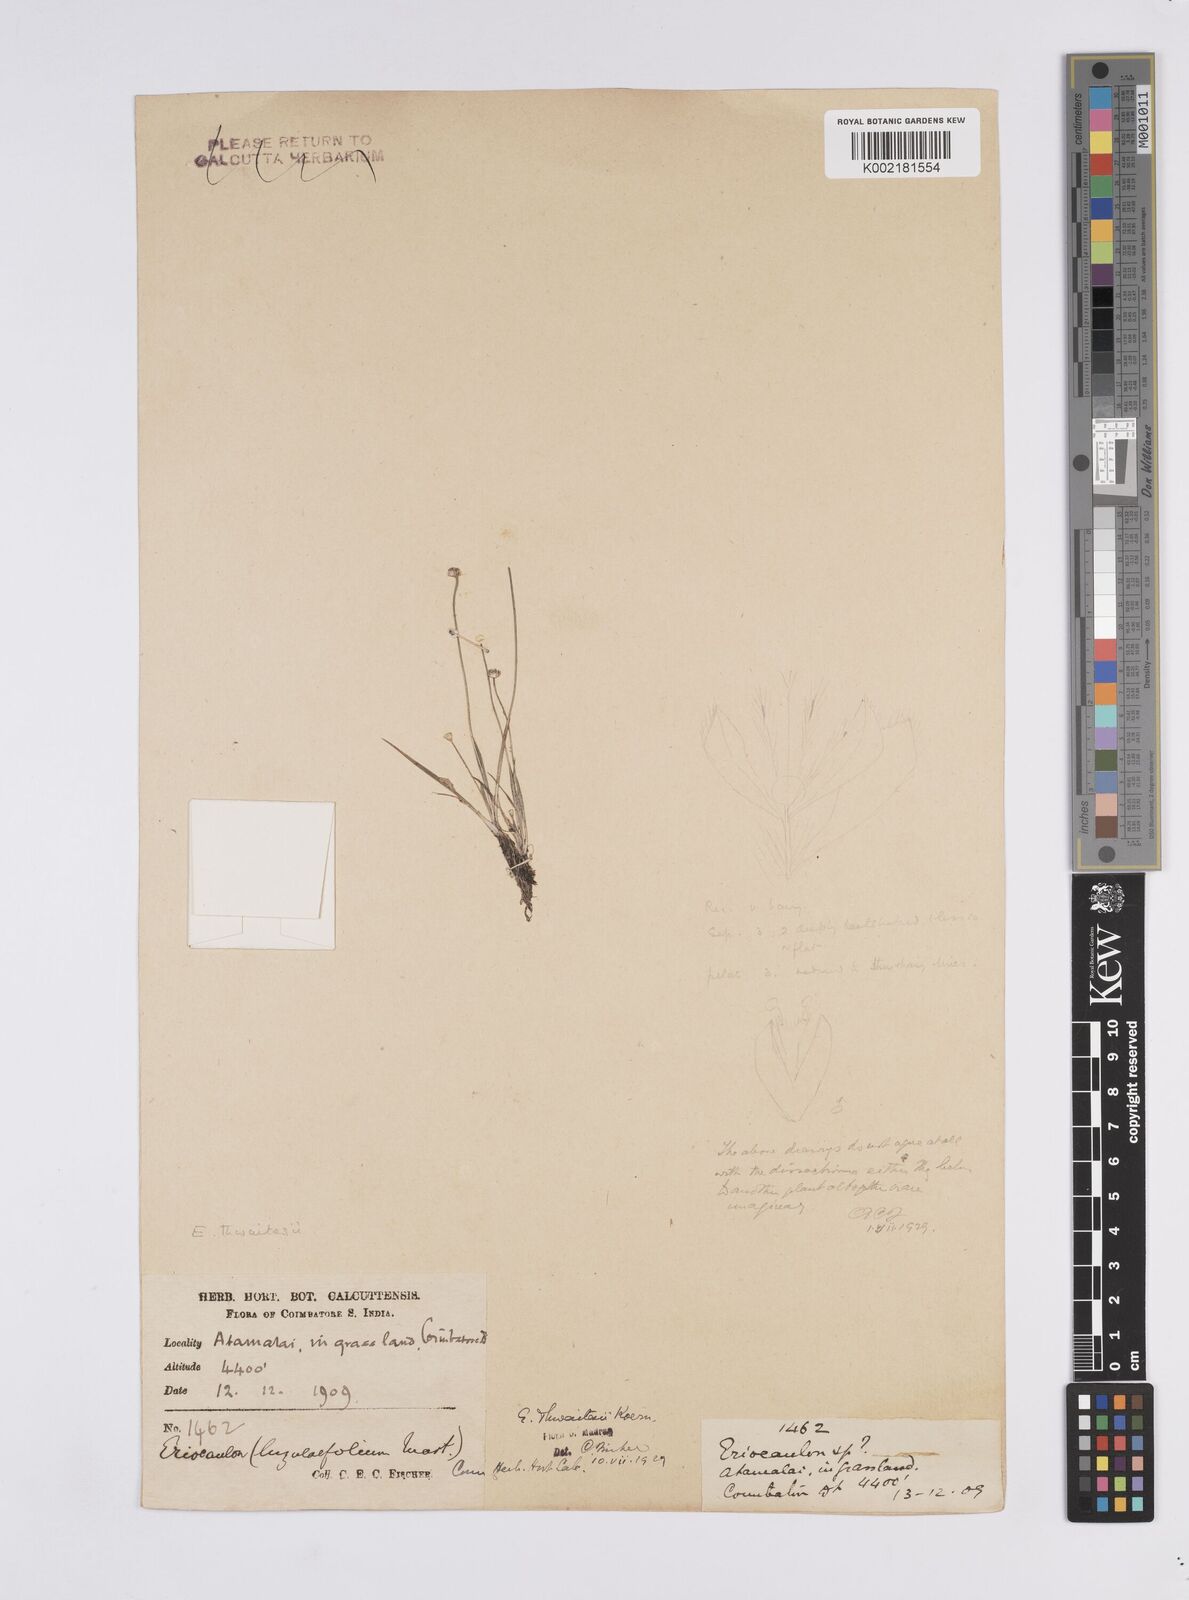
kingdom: Plantae
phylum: Tracheophyta
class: Liliopsida
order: Poales
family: Eriocaulaceae
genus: Eriocaulon
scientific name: Eriocaulon thwaitesii
